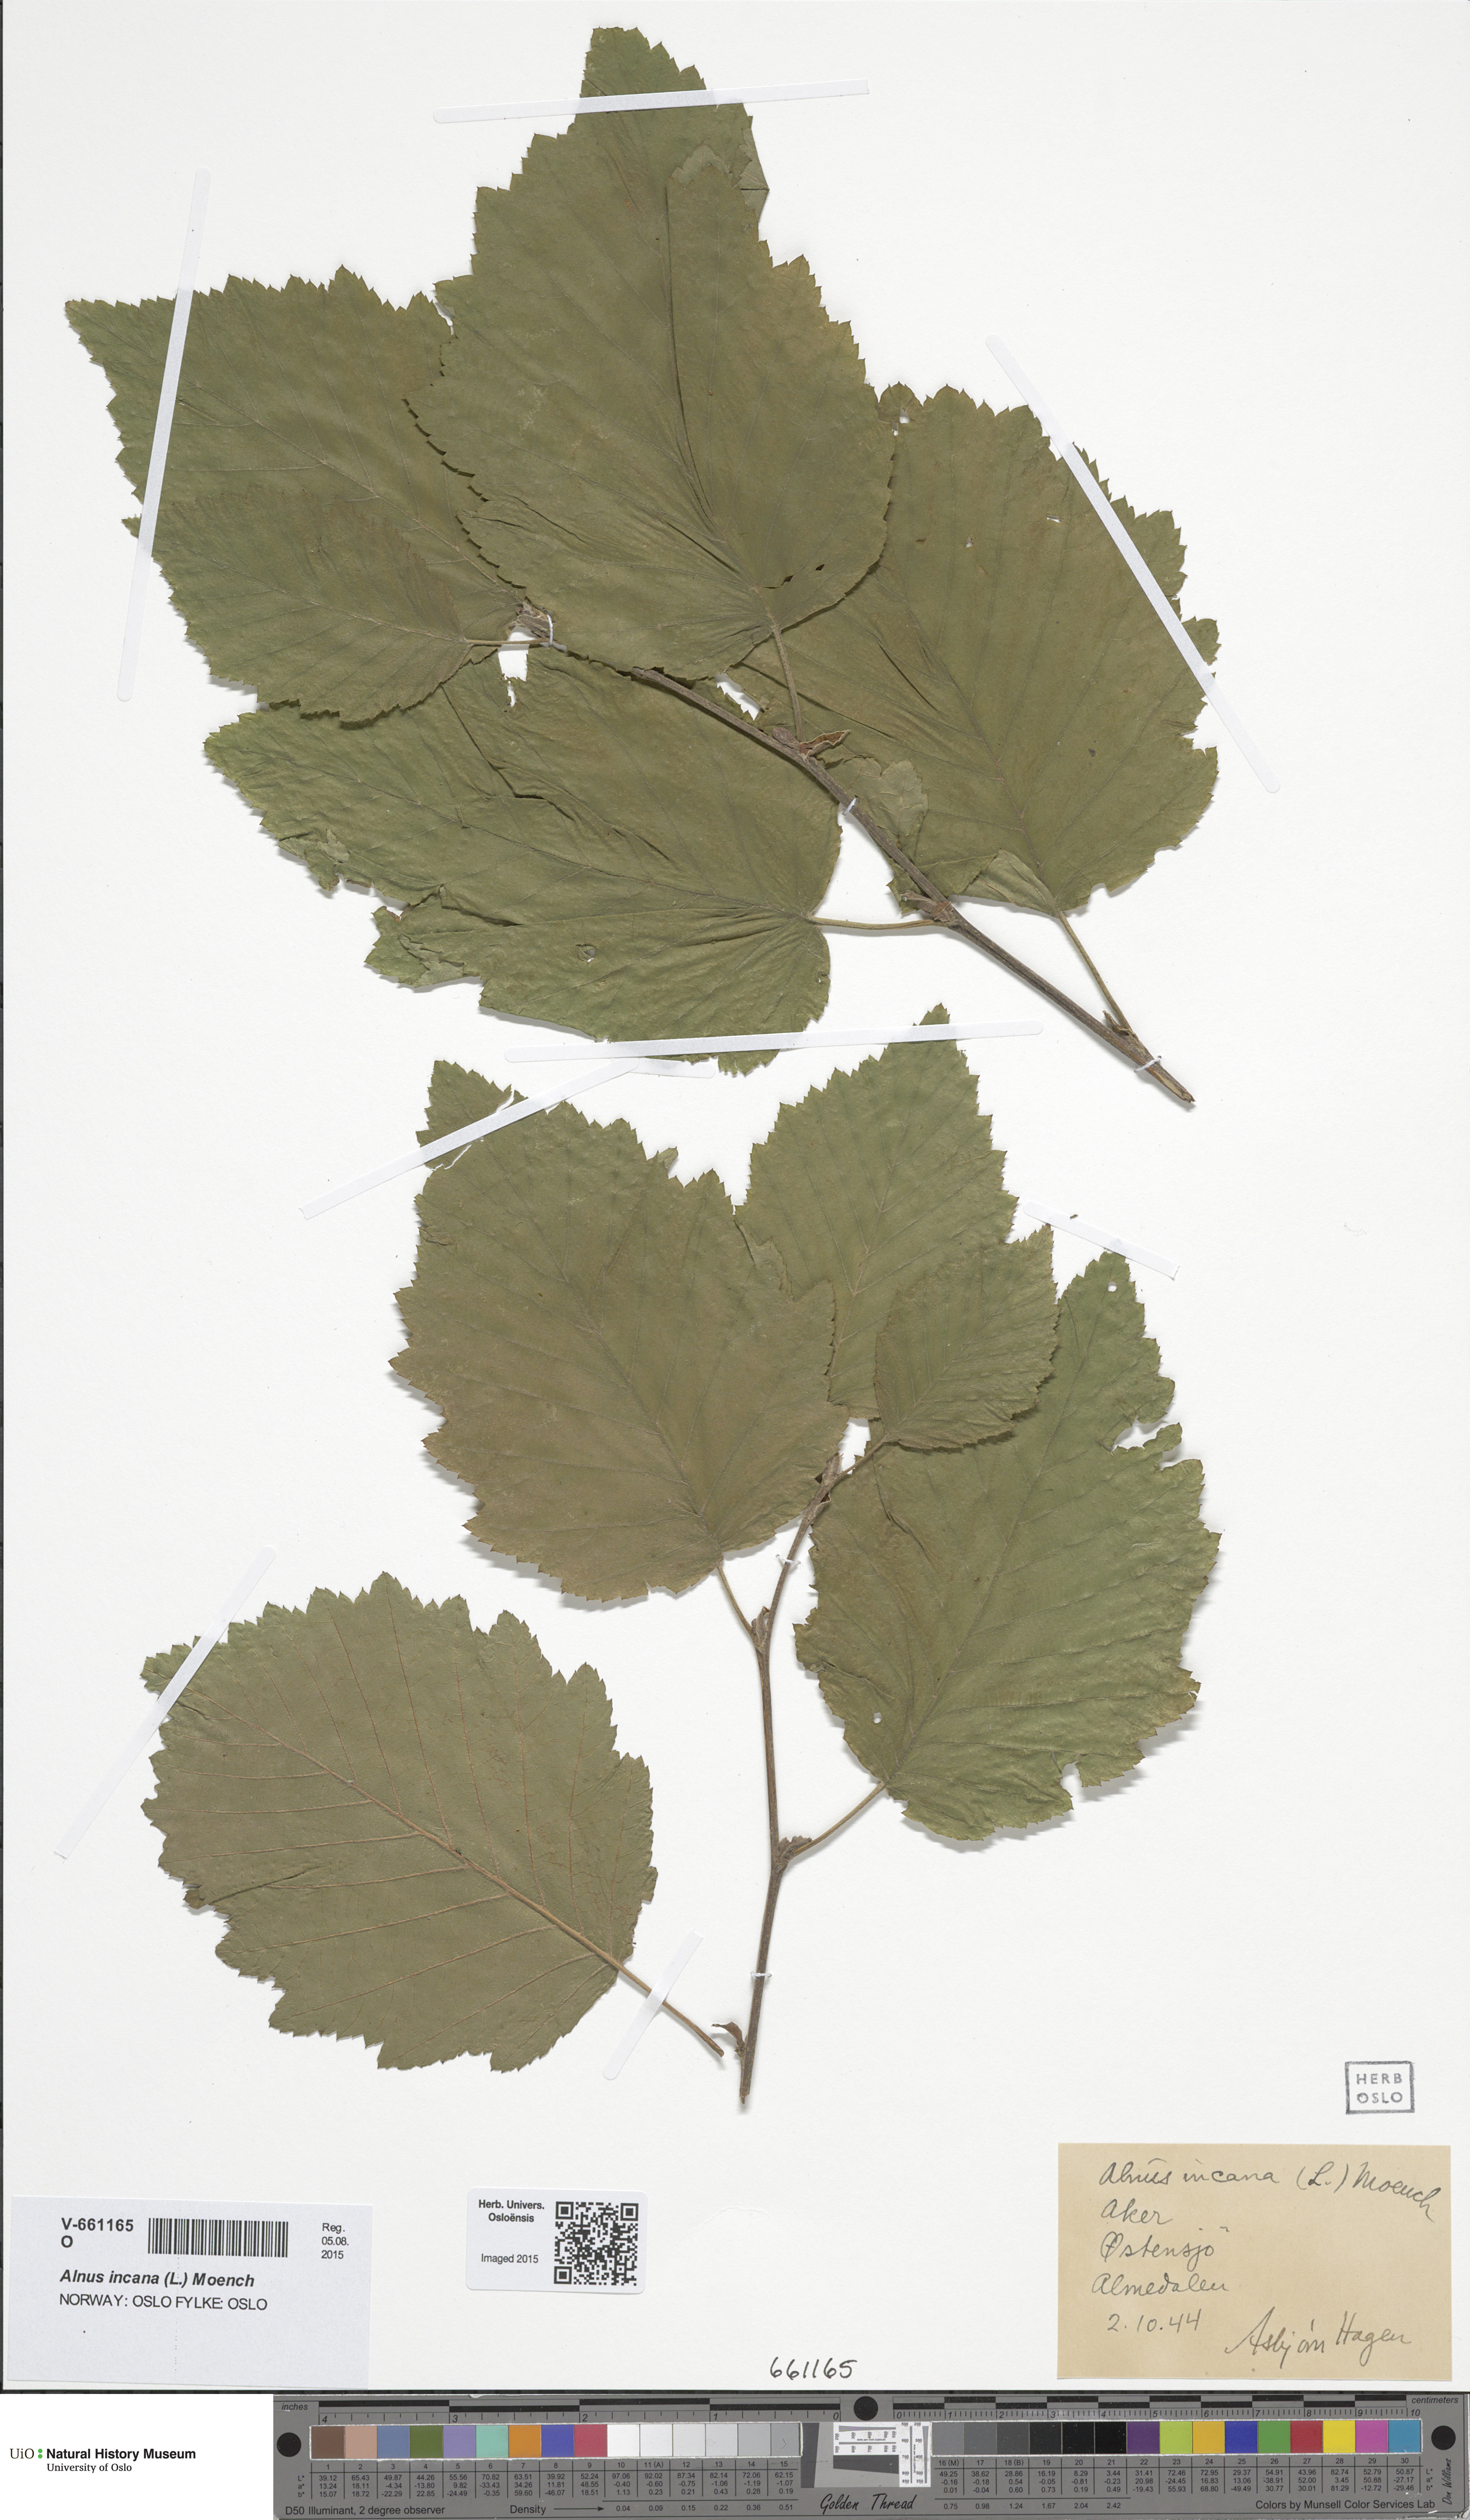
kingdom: Plantae
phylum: Tracheophyta
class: Magnoliopsida
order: Fagales
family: Betulaceae
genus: Alnus
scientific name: Alnus incana
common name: Grey alder
